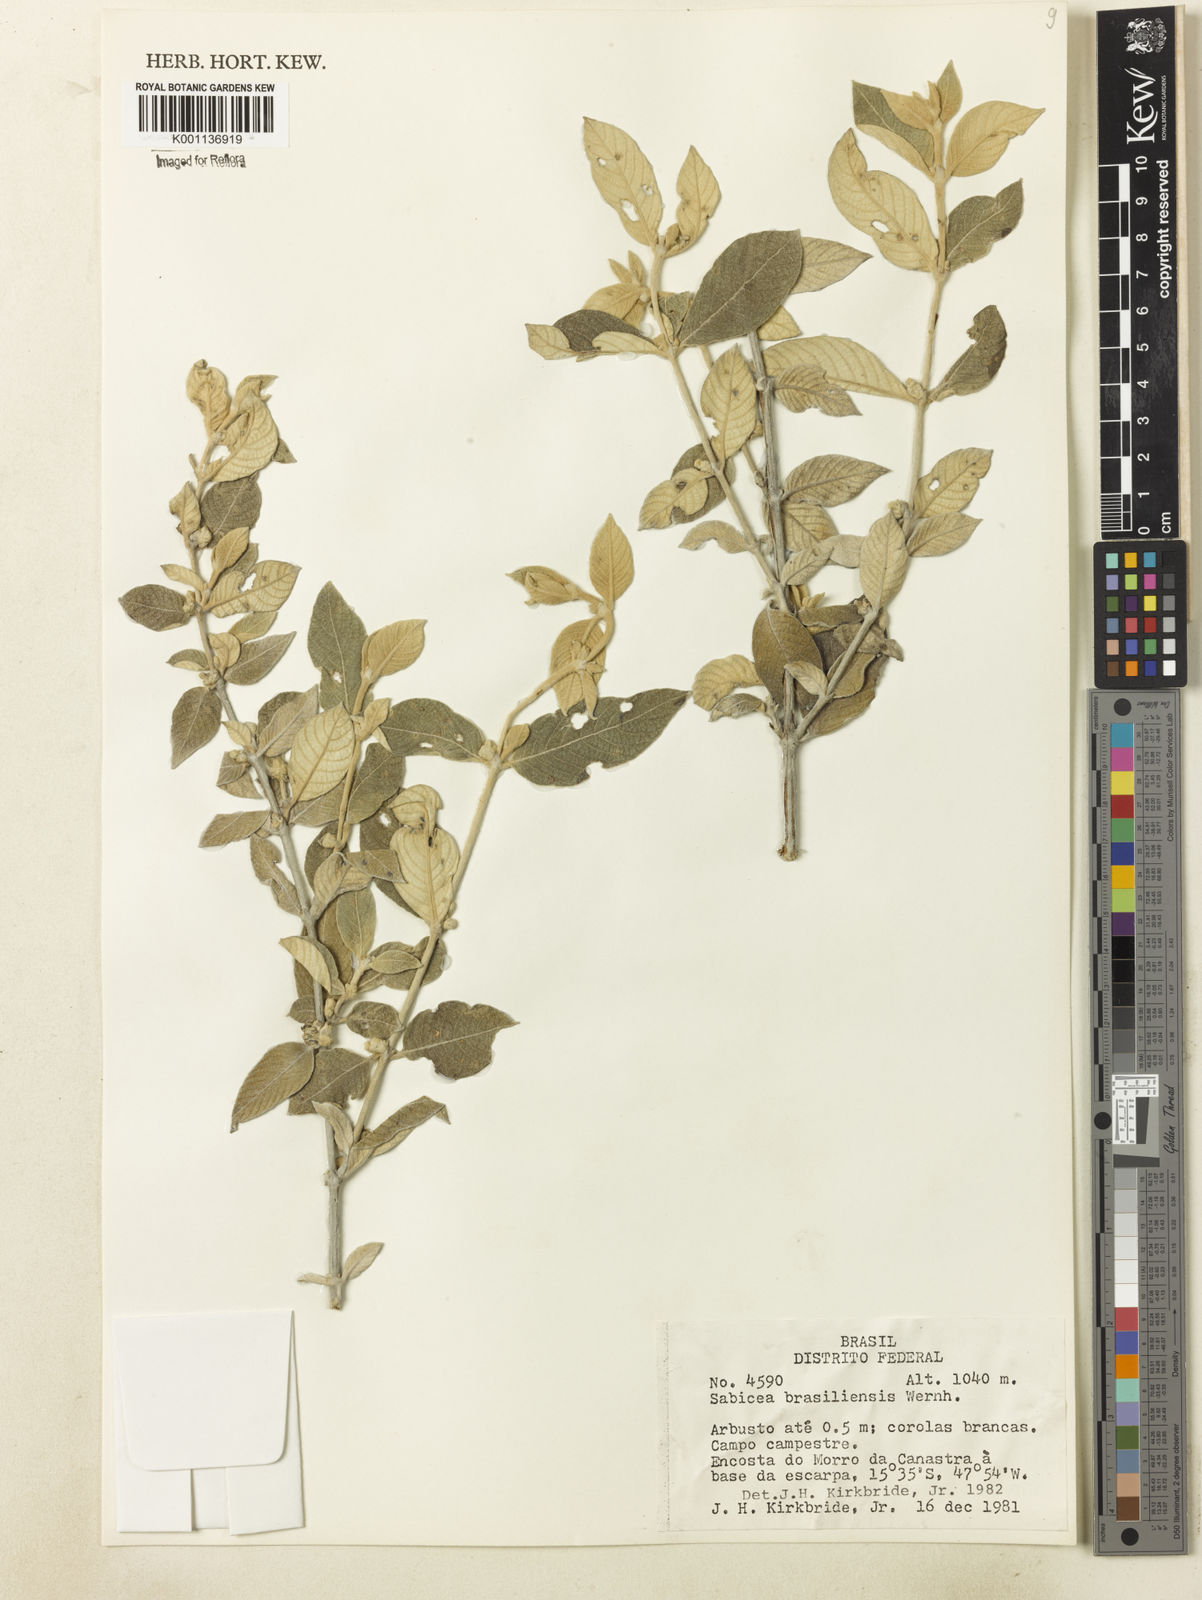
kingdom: Plantae
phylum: Tracheophyta
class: Magnoliopsida
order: Gentianales
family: Rubiaceae
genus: Sabicea
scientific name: Sabicea brasiliensis
